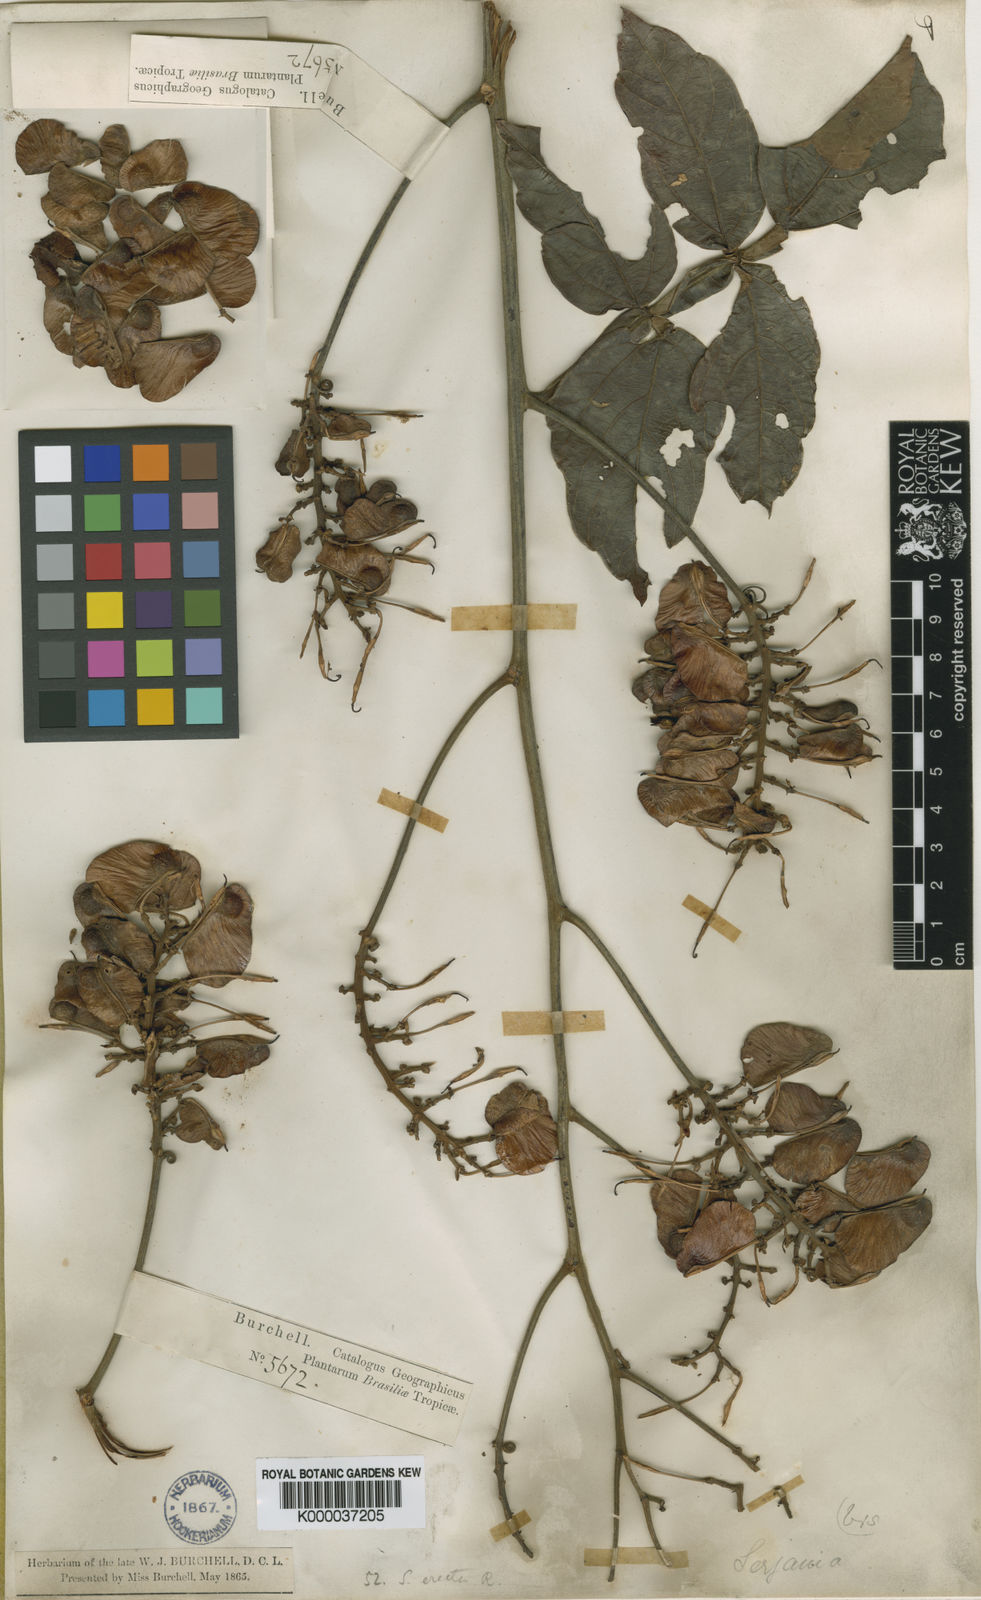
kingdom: Plantae
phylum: Tracheophyta
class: Magnoliopsida
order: Sapindales
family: Sapindaceae
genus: Serjania
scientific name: Serjania erecta
